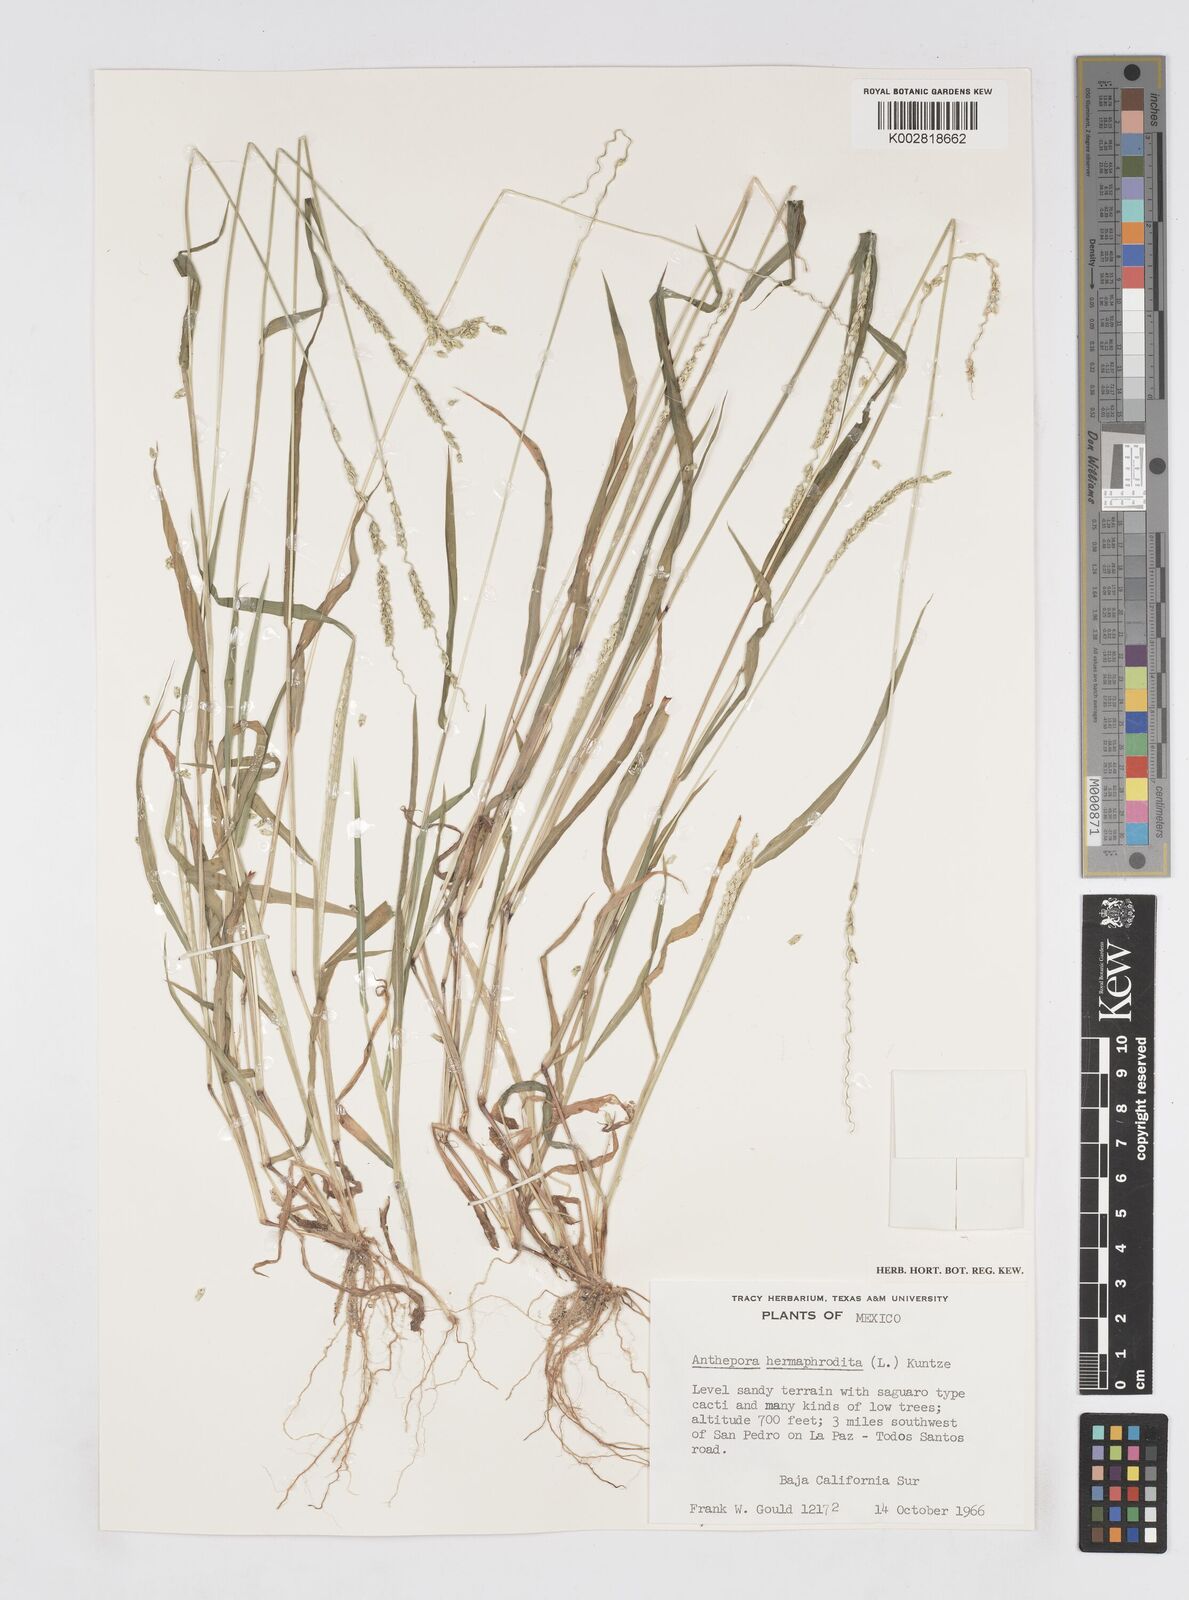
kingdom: Plantae
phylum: Tracheophyta
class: Liliopsida
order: Poales
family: Poaceae
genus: Anthephora
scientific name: Anthephora hermaphrodita
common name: Oldfield grass
